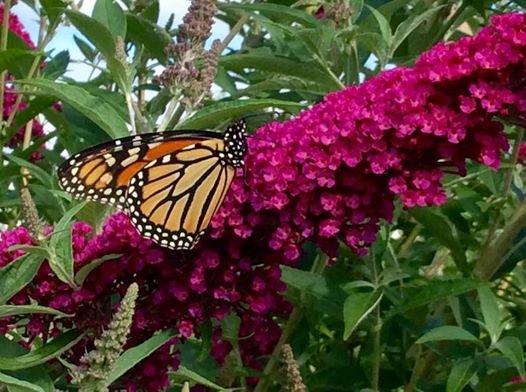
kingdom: Animalia
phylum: Arthropoda
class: Insecta
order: Lepidoptera
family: Nymphalidae
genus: Danaus
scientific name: Danaus plexippus
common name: Monarch
